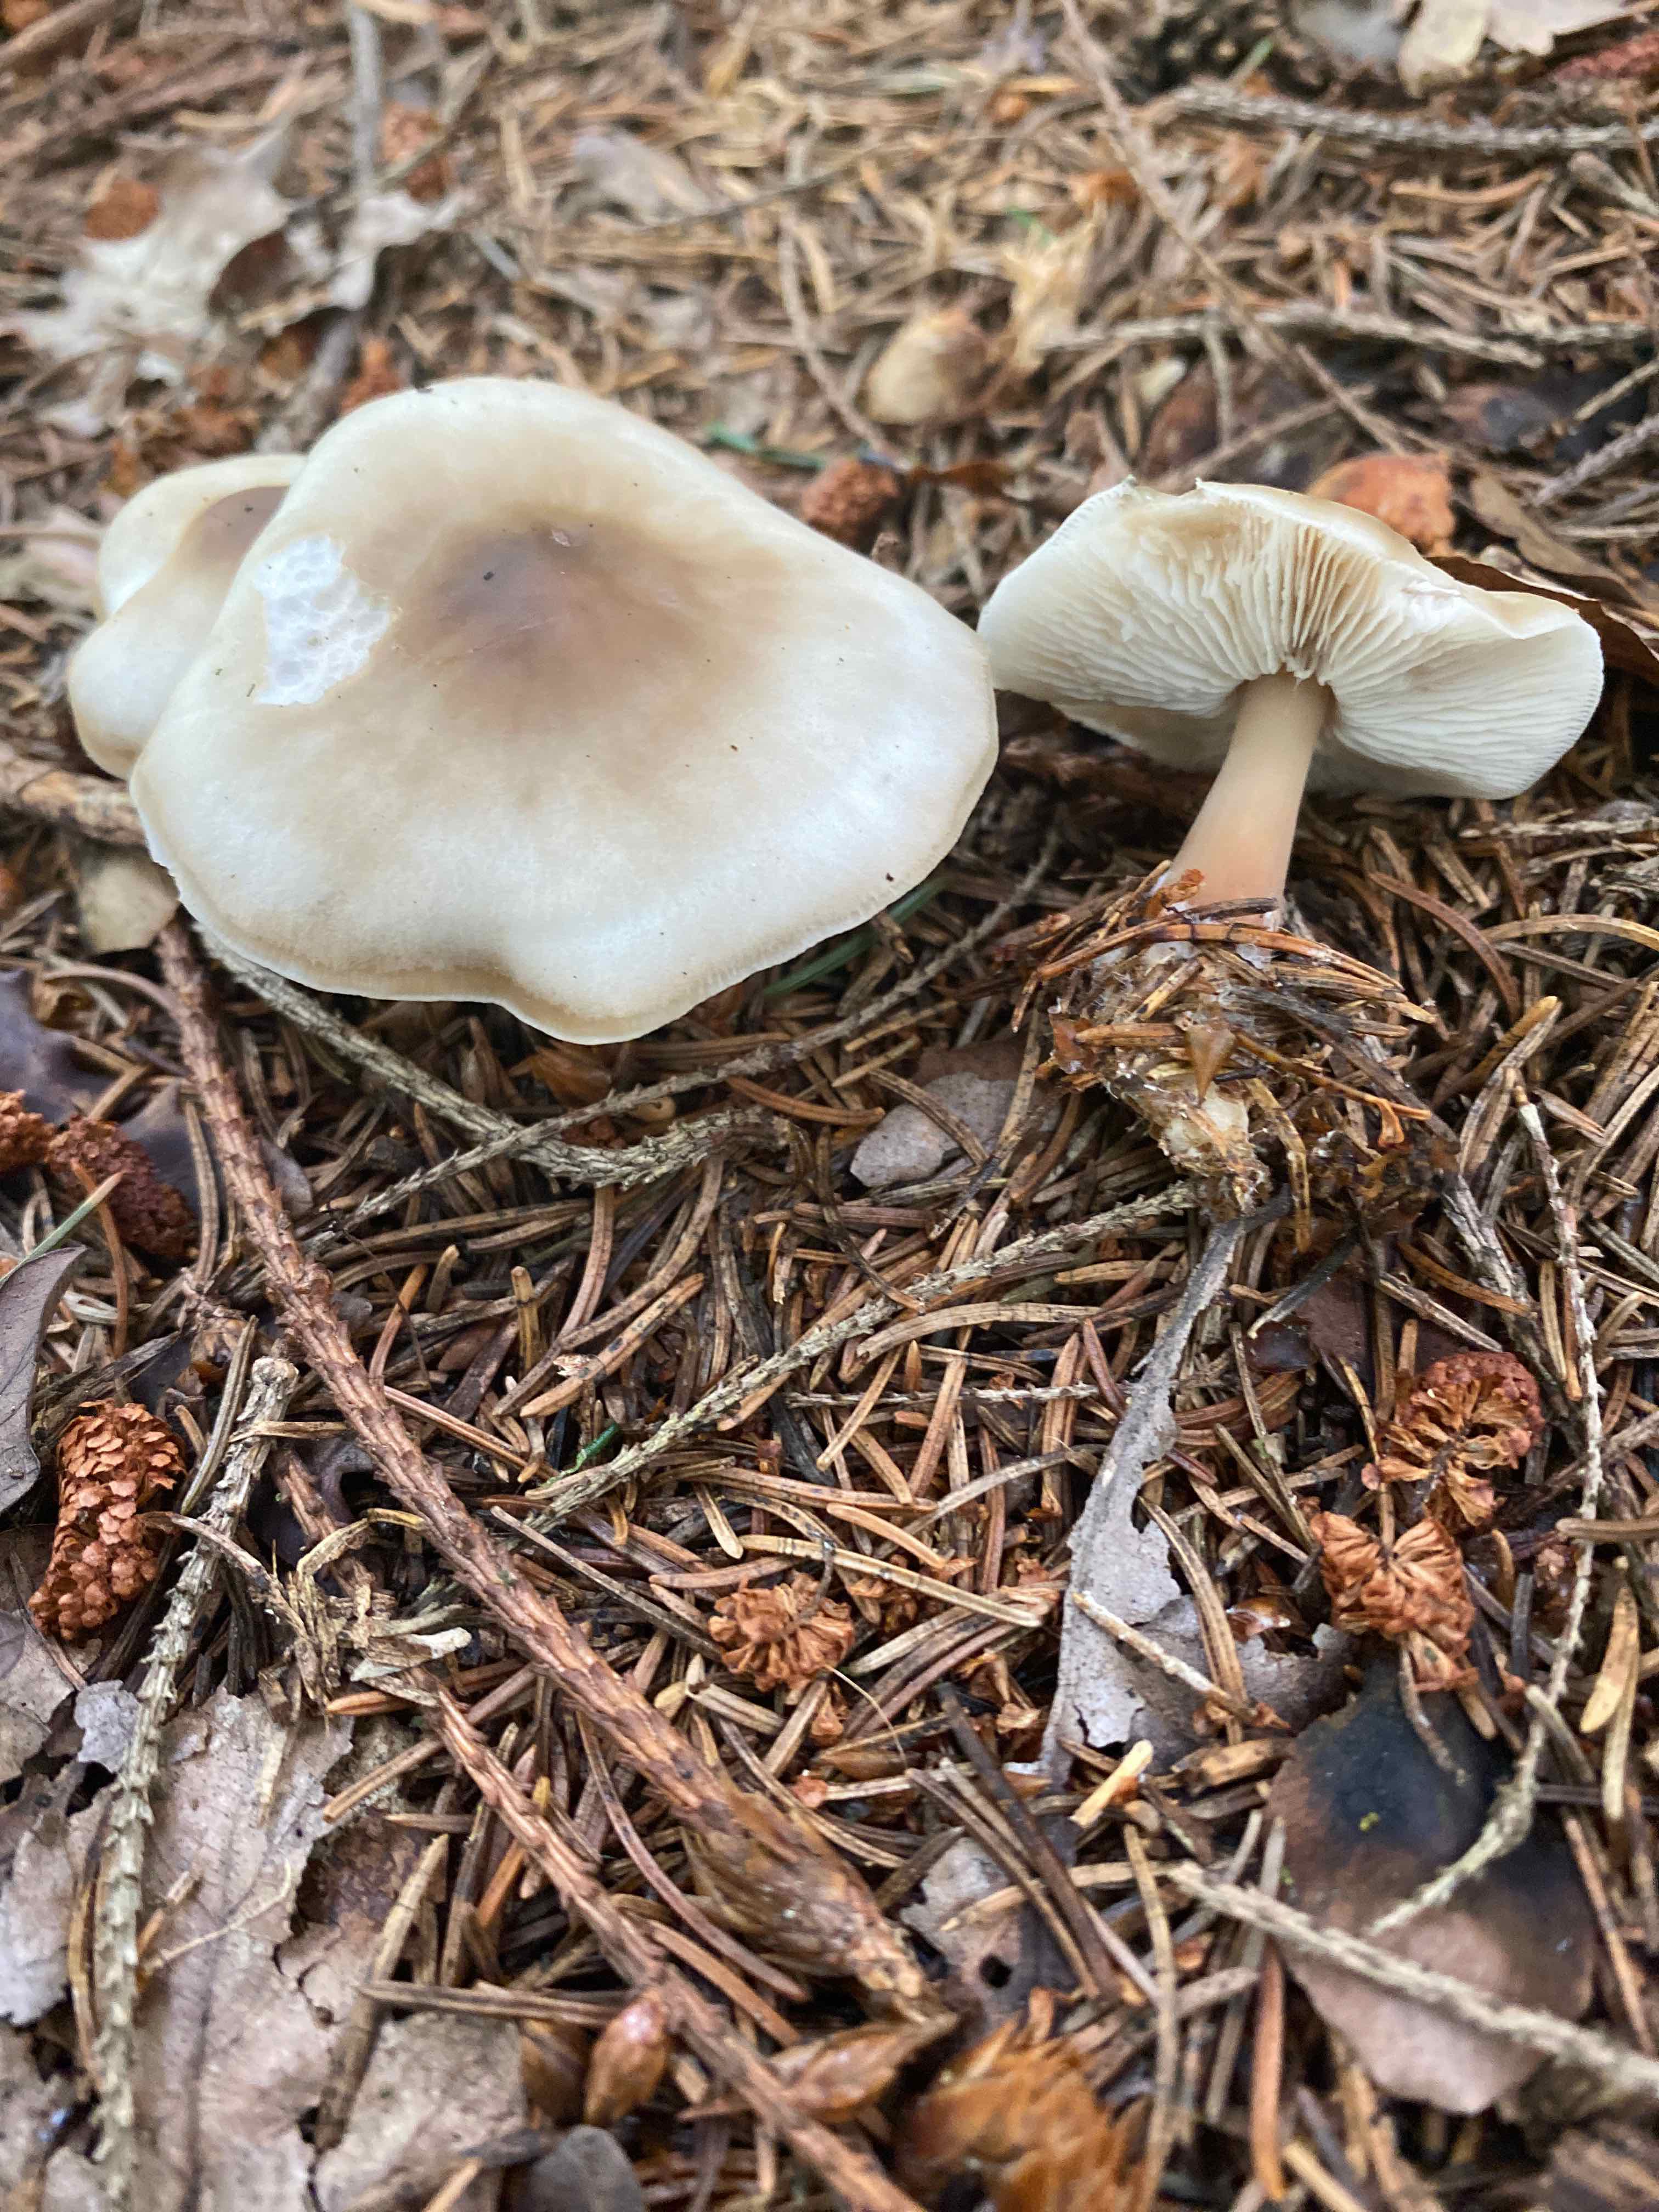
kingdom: Fungi
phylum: Basidiomycota
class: Agaricomycetes
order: Agaricales
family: Omphalotaceae
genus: Rhodocollybia
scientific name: Rhodocollybia asema
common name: horngrå fladhat
